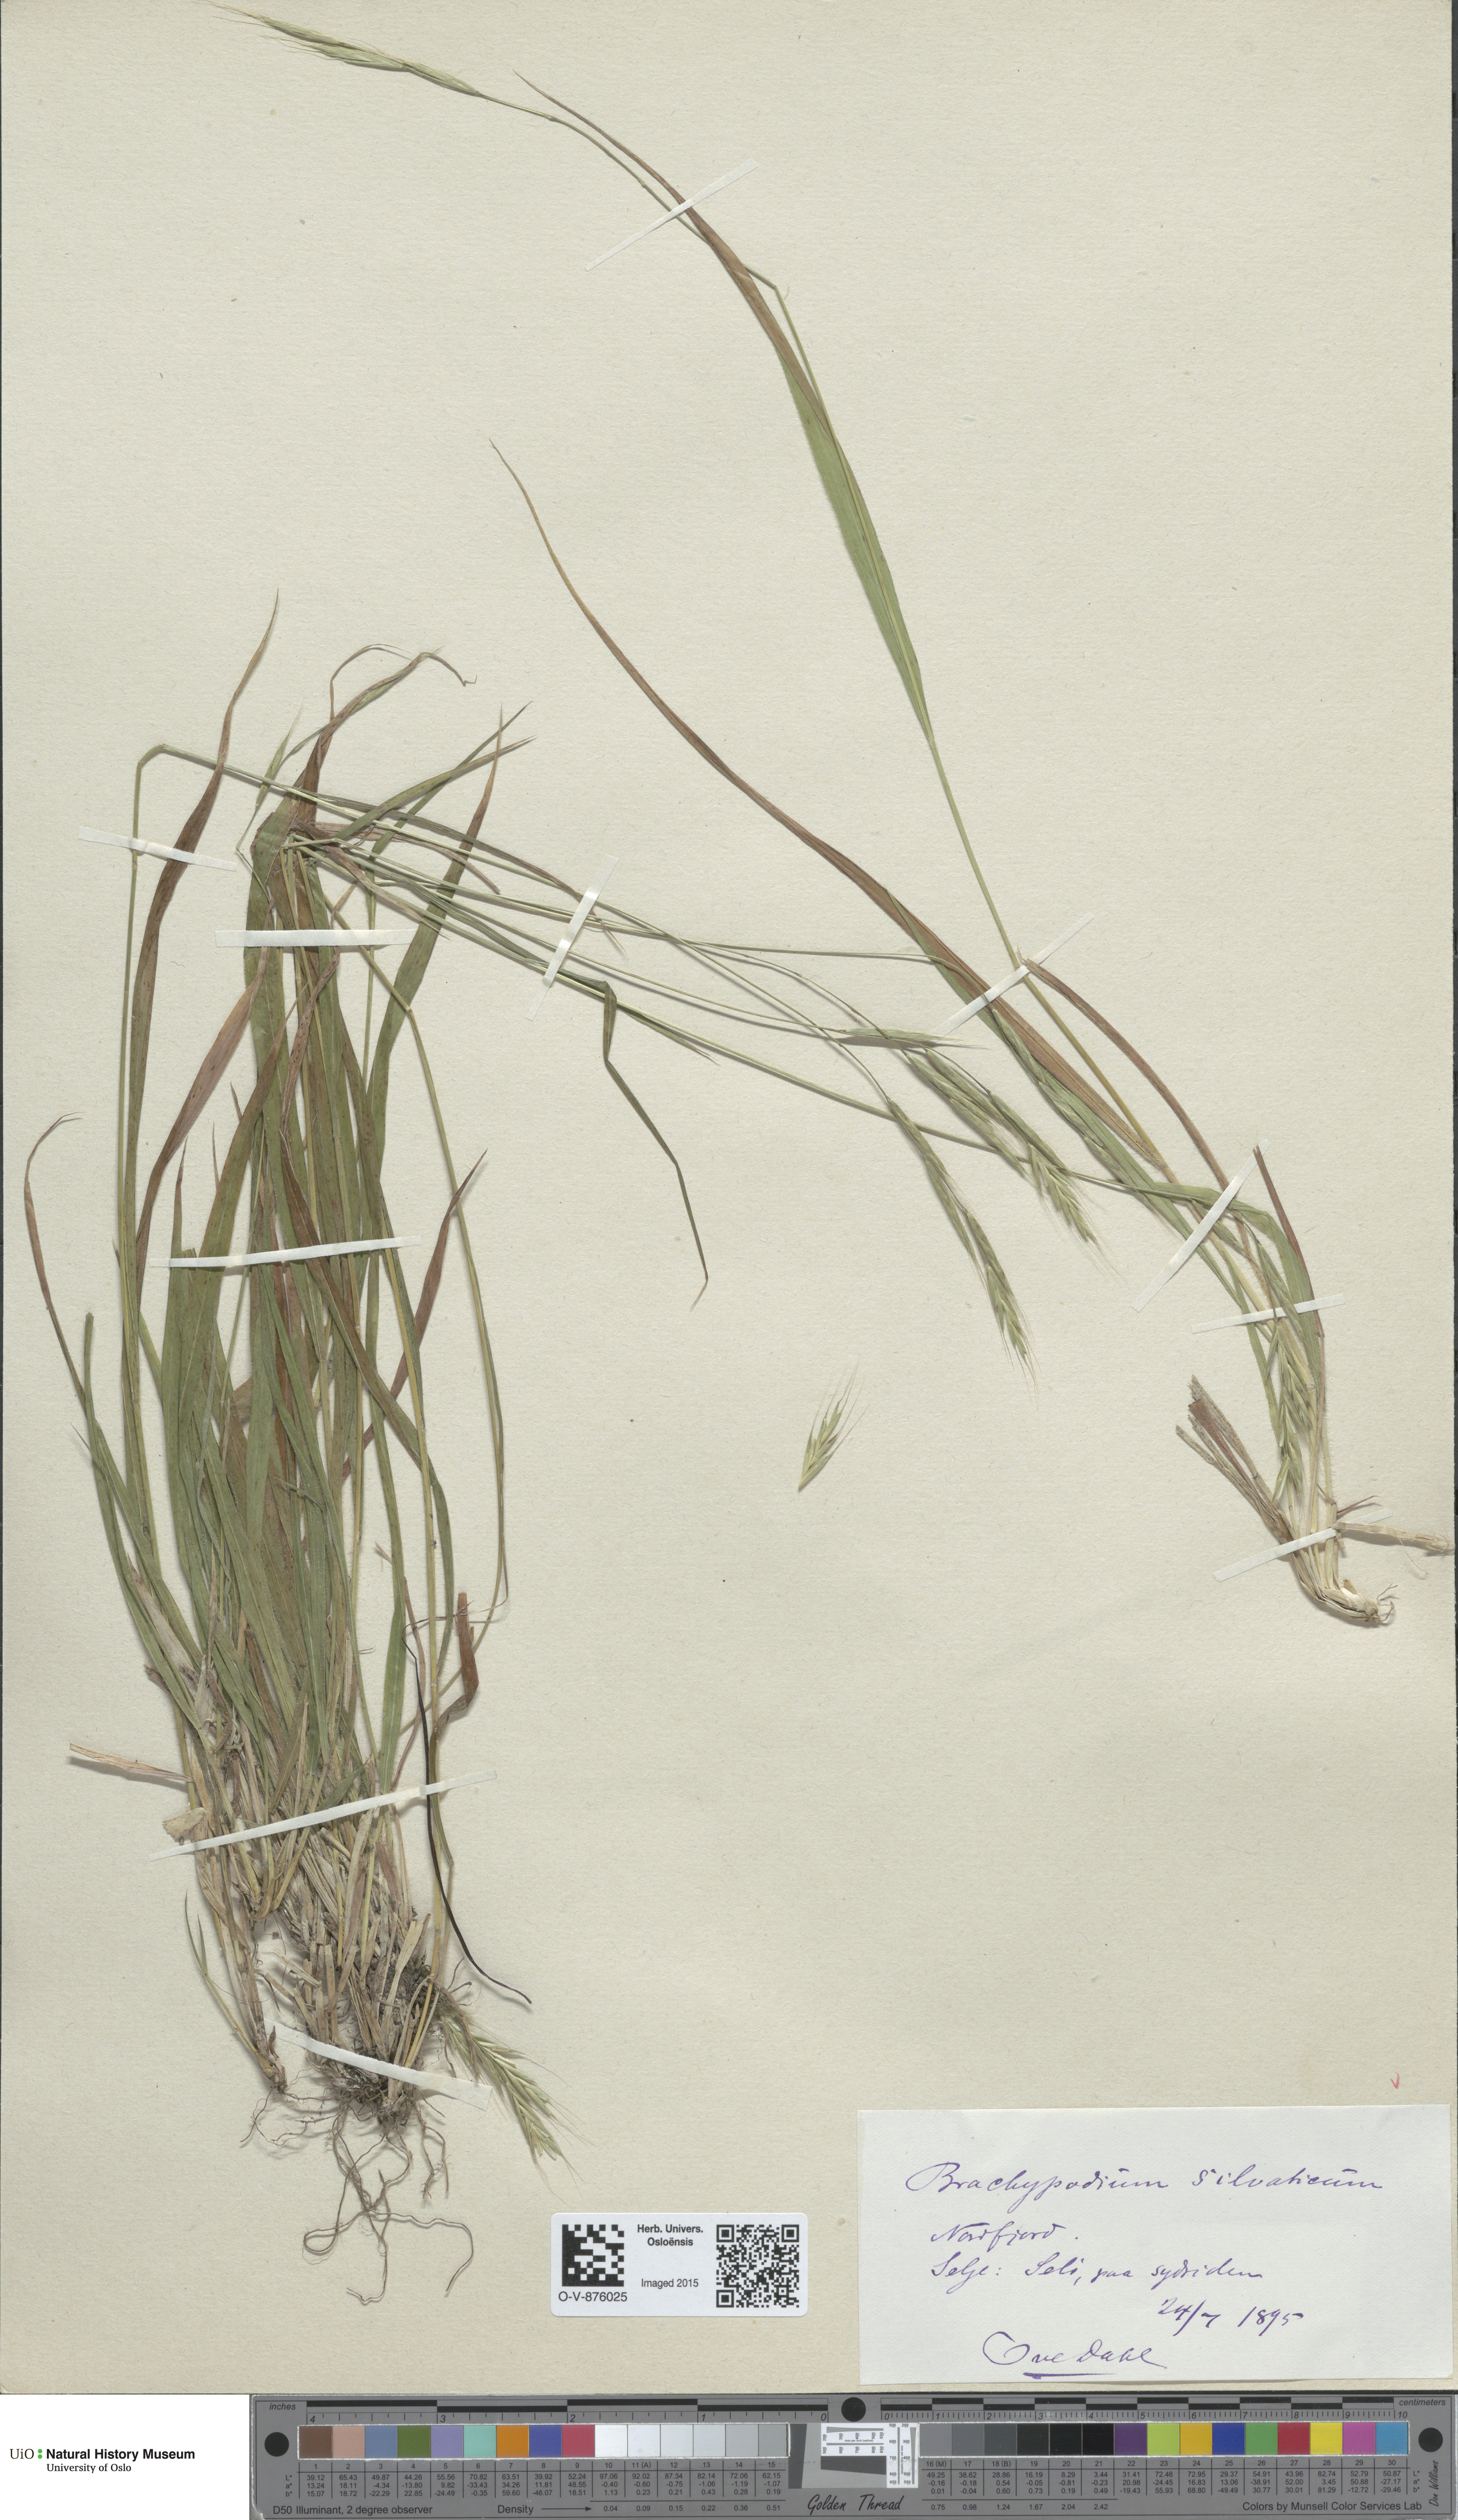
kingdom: Plantae
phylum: Tracheophyta
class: Liliopsida
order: Poales
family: Poaceae
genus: Brachypodium
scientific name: Brachypodium sylvaticum
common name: False-brome
